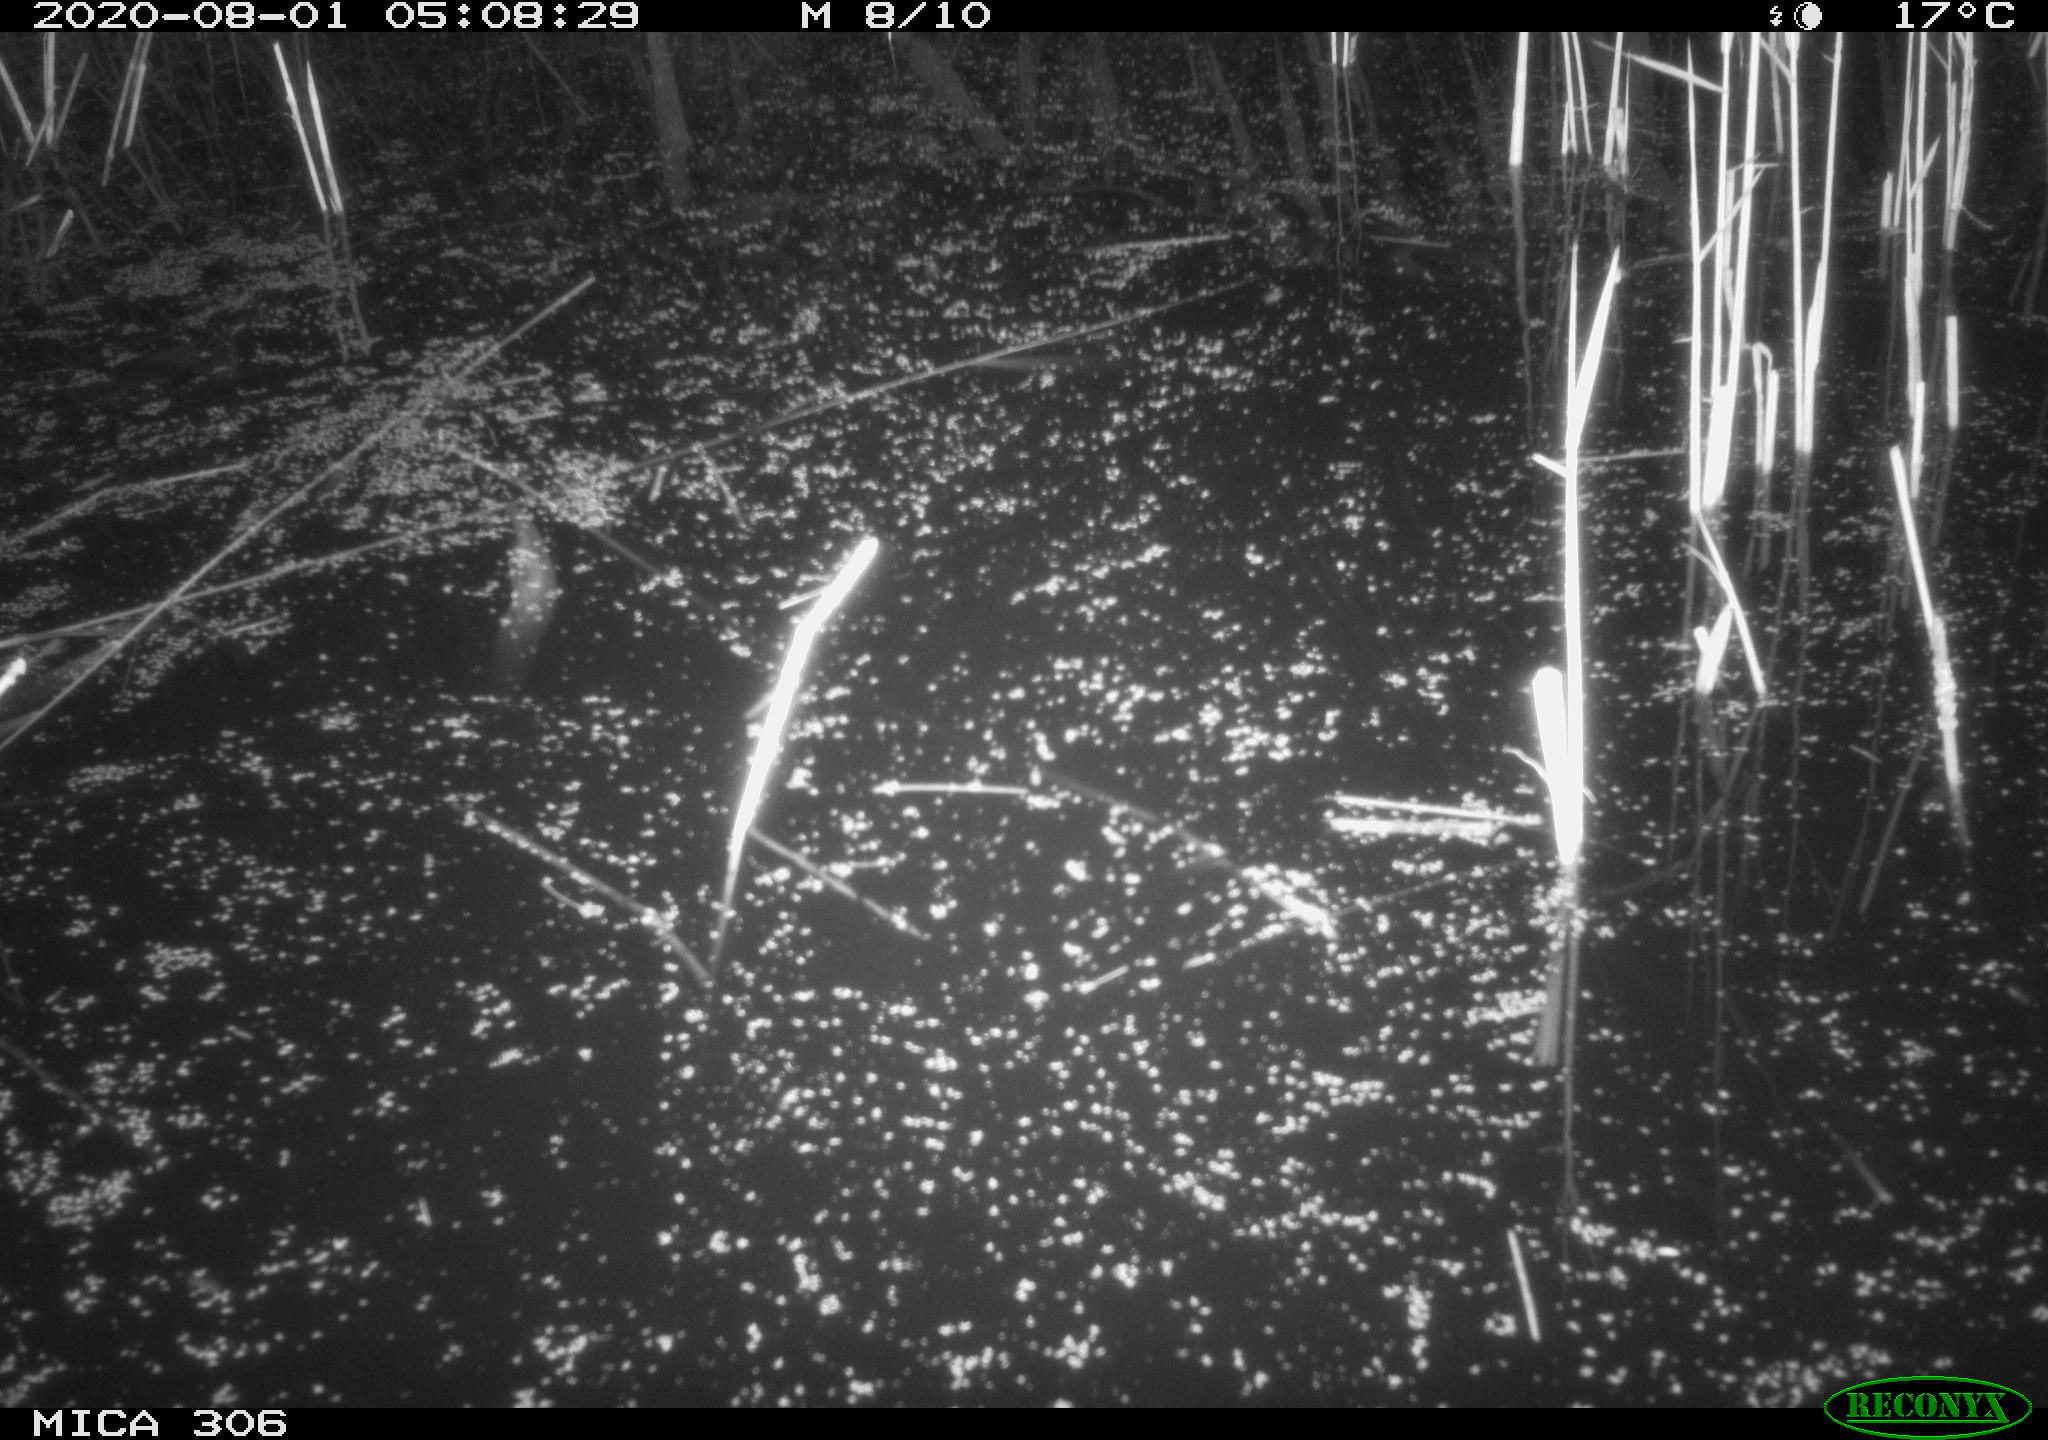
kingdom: Animalia
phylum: Chordata
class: Mammalia
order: Rodentia
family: Muridae
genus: Rattus
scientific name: Rattus norvegicus
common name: Brown rat
